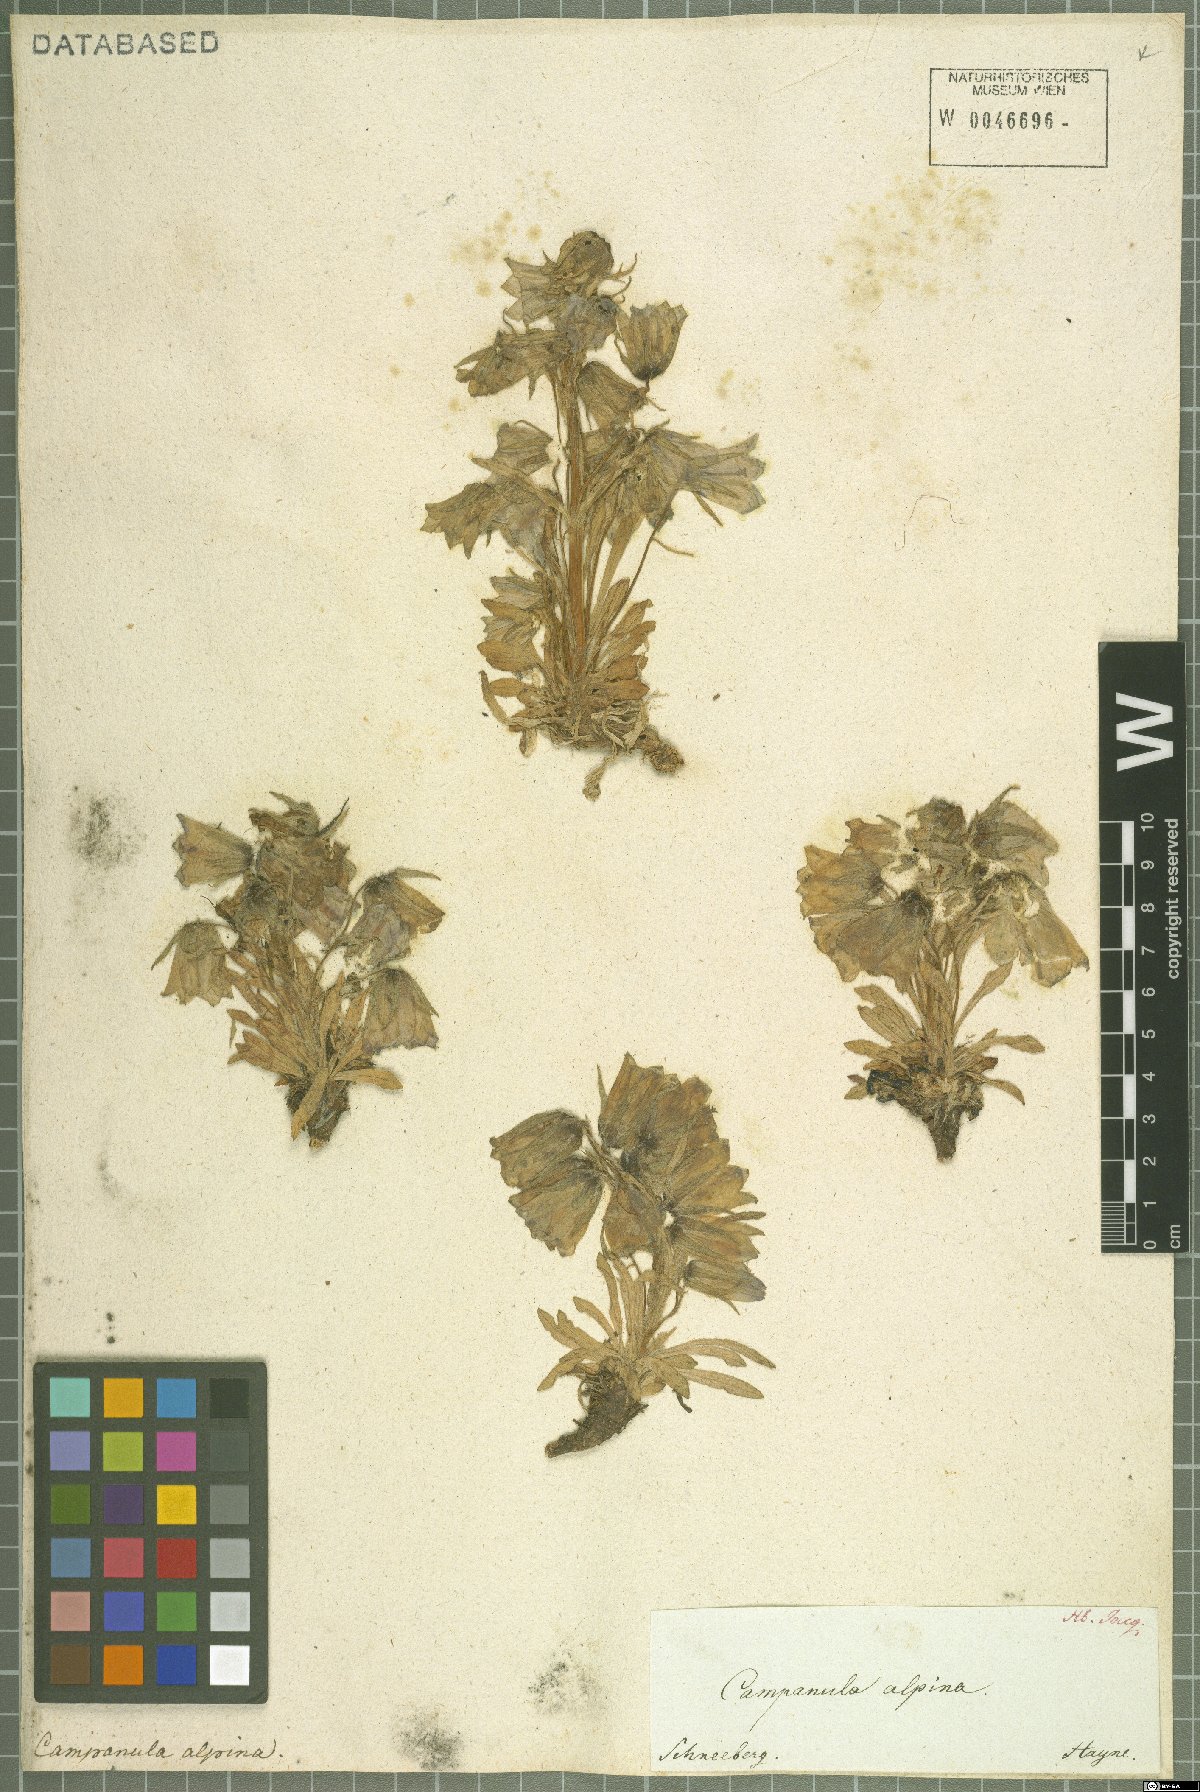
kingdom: Plantae
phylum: Tracheophyta
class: Magnoliopsida
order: Asterales
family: Campanulaceae
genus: Campanula
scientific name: Campanula alpina
